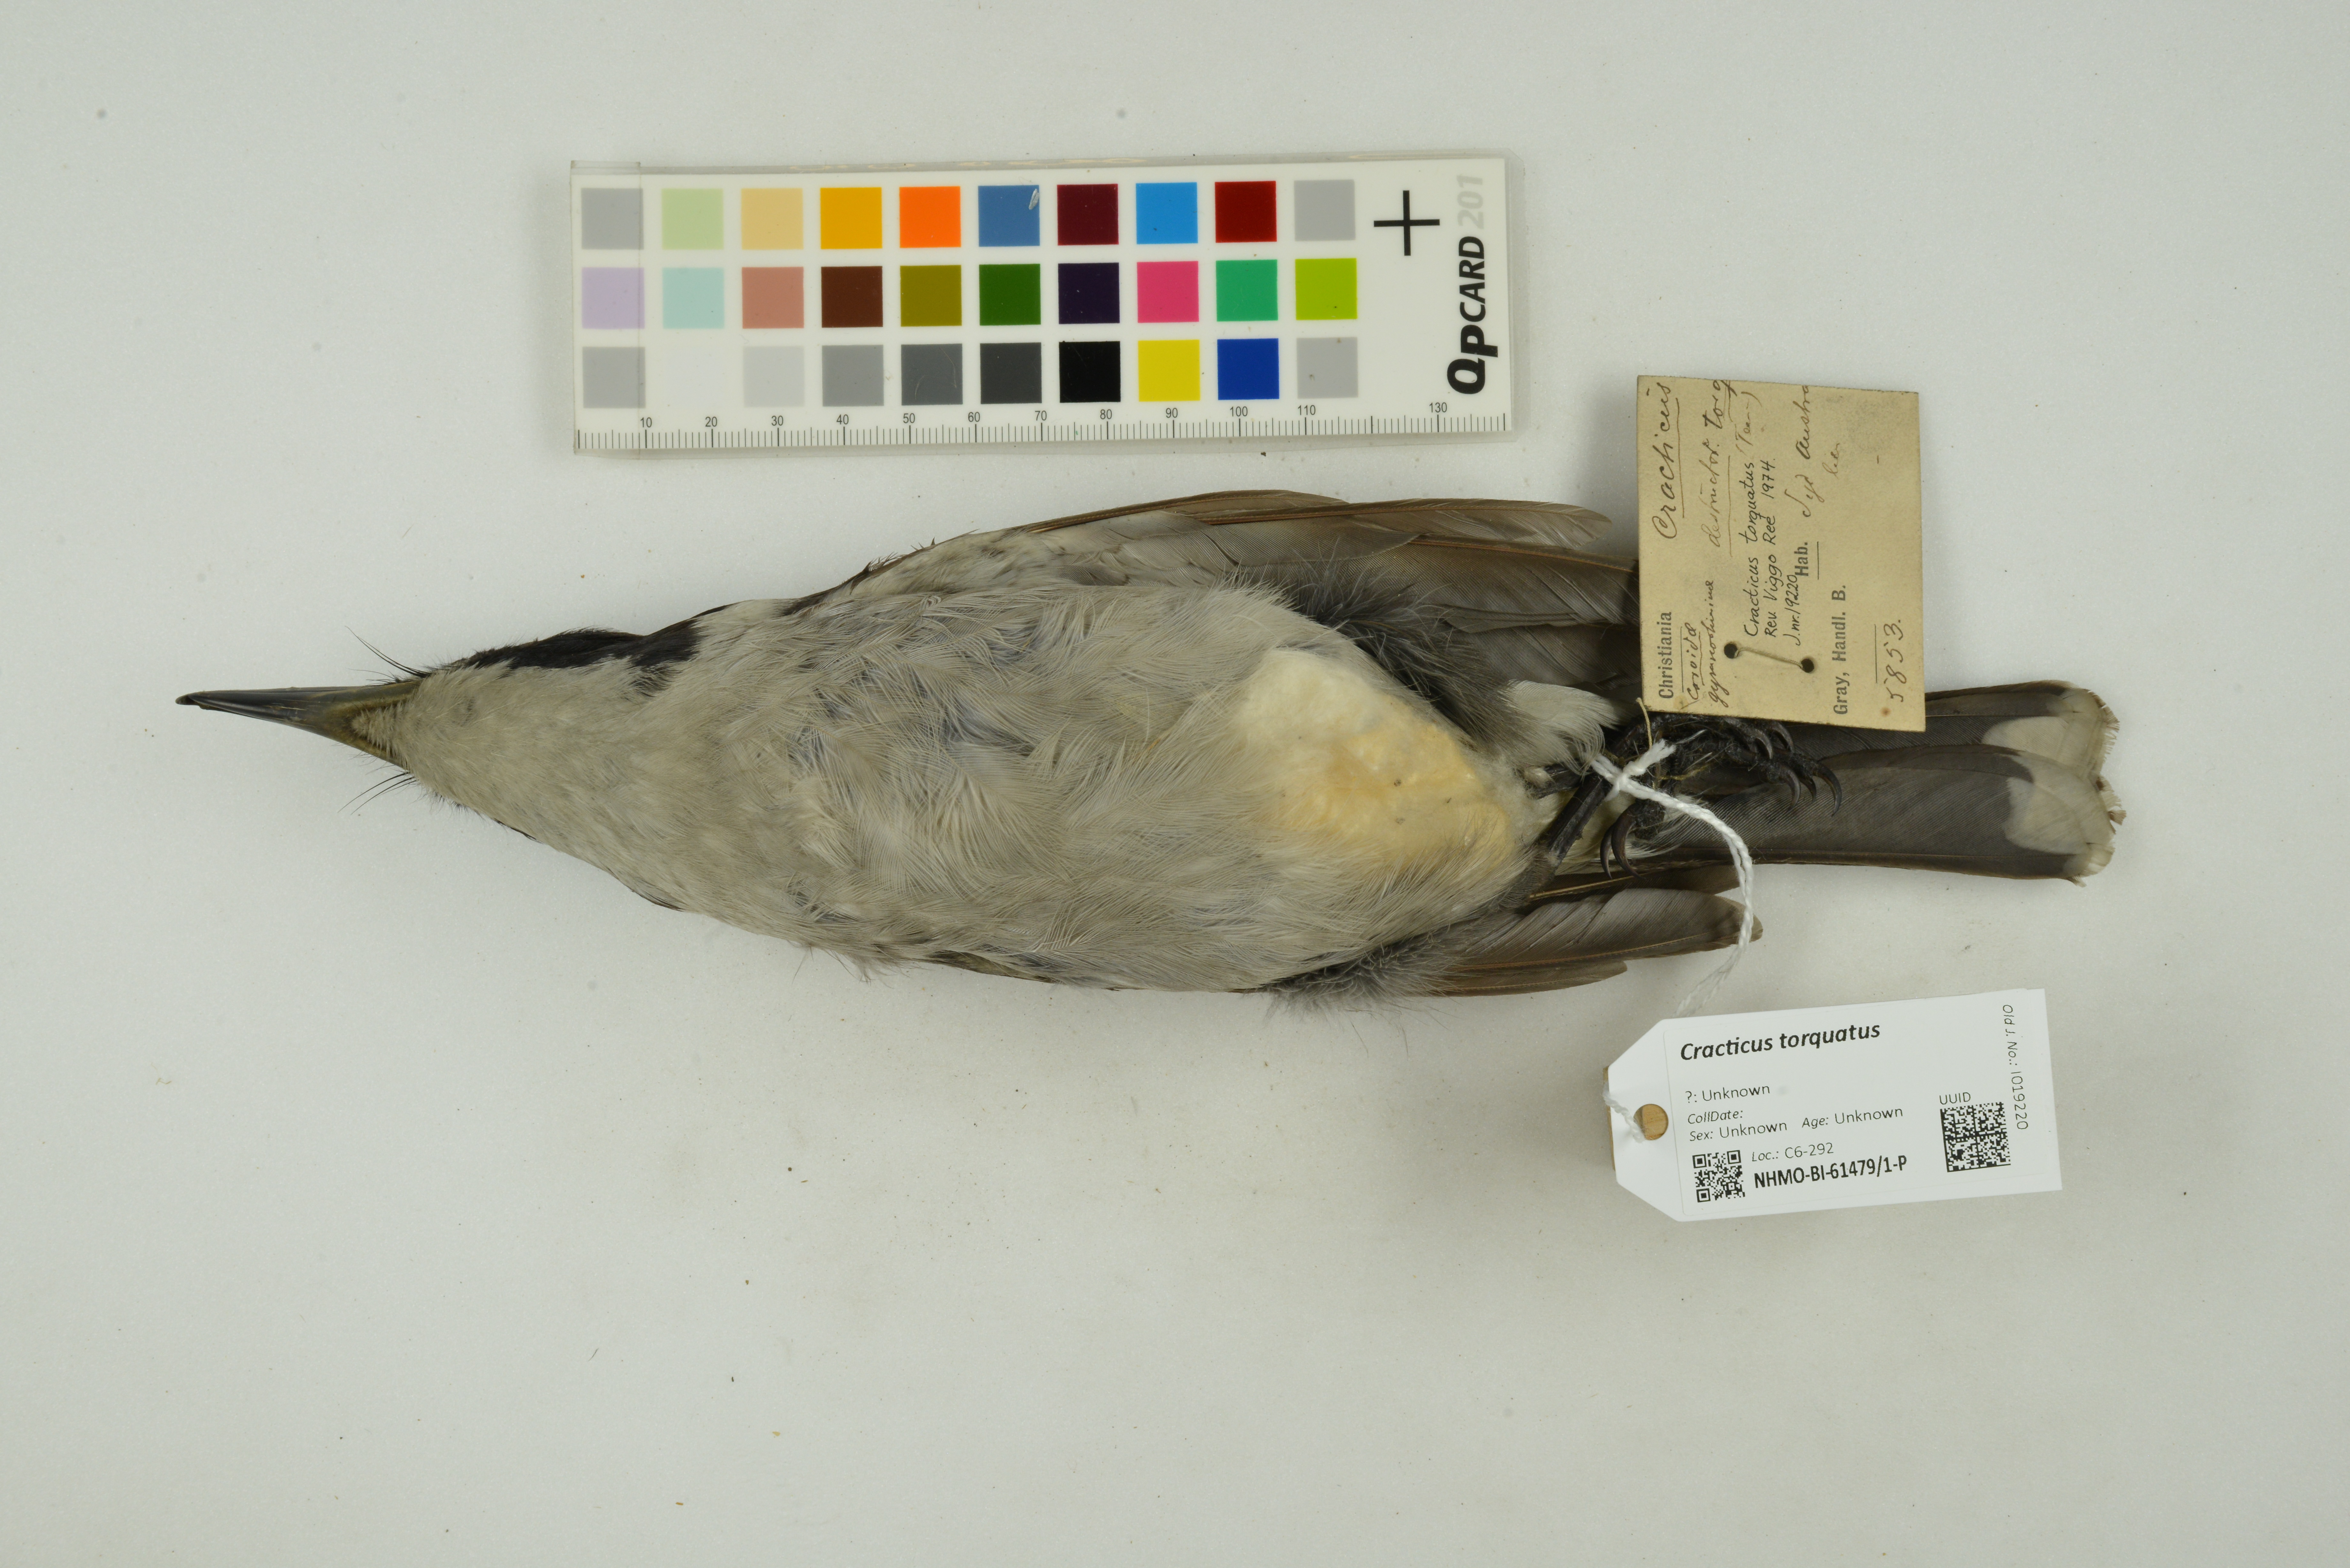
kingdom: Animalia
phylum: Chordata
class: Aves
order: Passeriformes
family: Cracticidae
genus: Cracticus
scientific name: Cracticus torquatus
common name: Grey butcherbird
